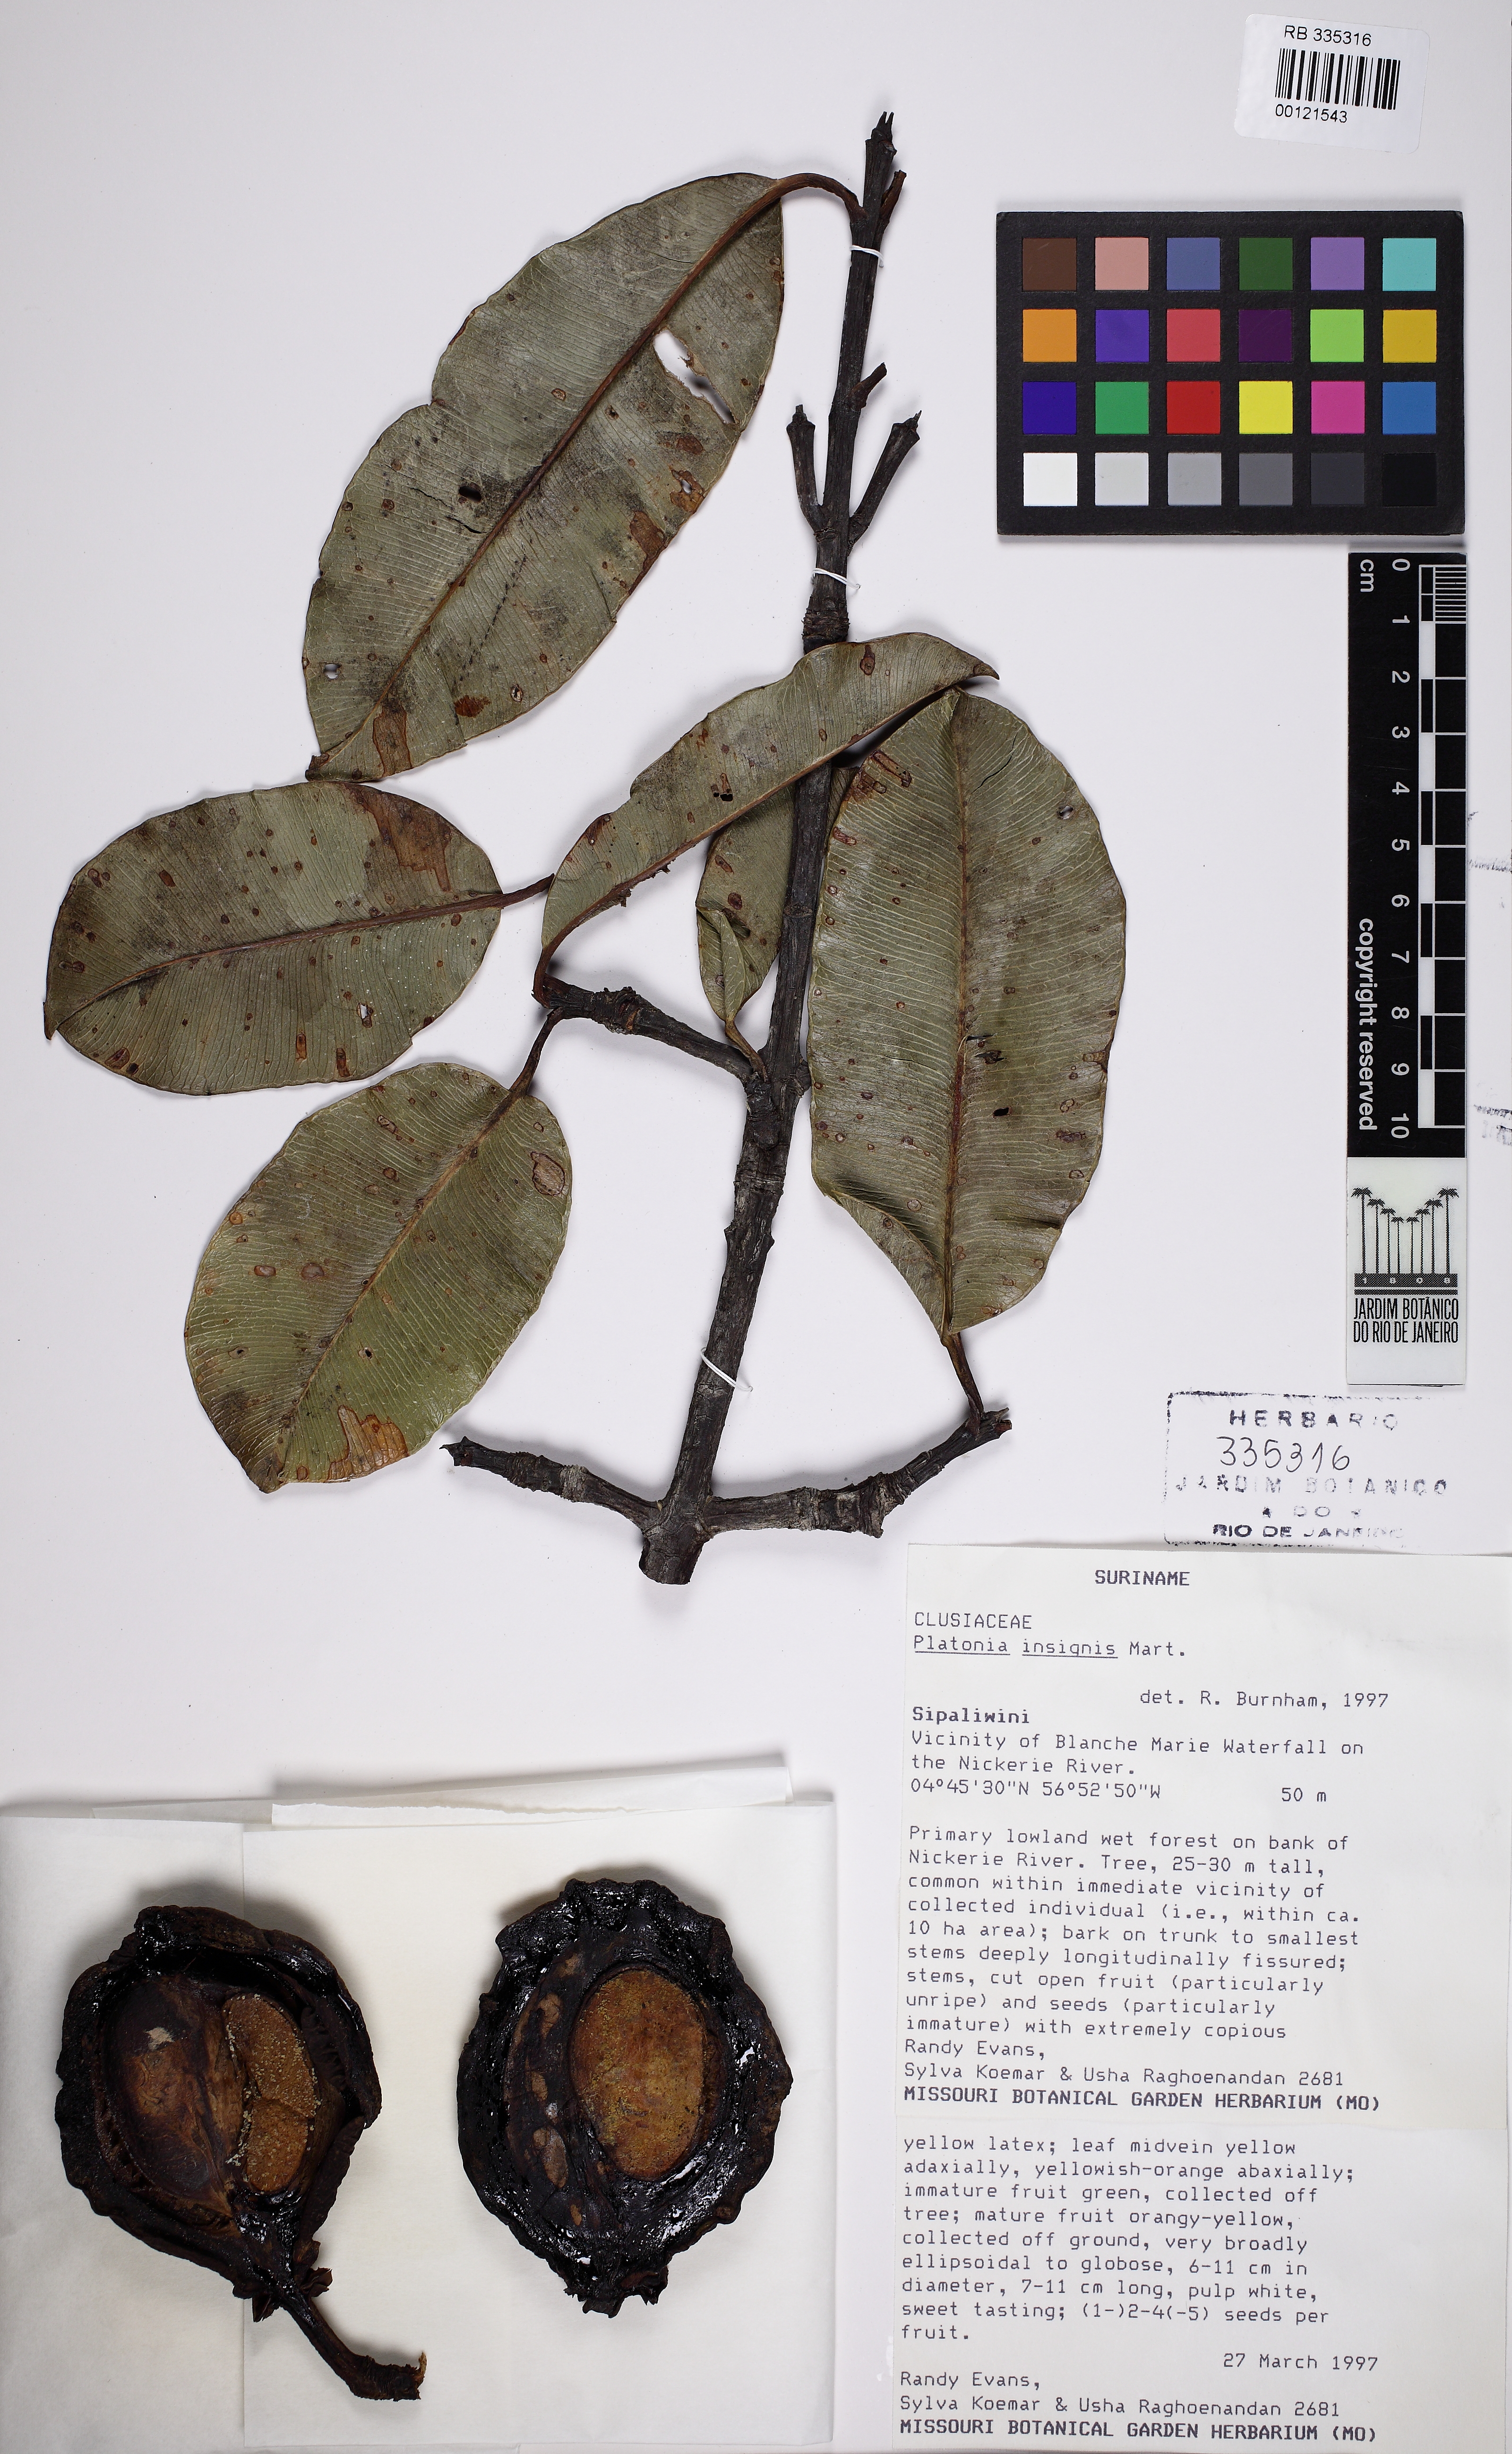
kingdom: Plantae
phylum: Tracheophyta
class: Magnoliopsida
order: Malpighiales
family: Clusiaceae
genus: Platonia
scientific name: Platonia insignis
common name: Bacury
